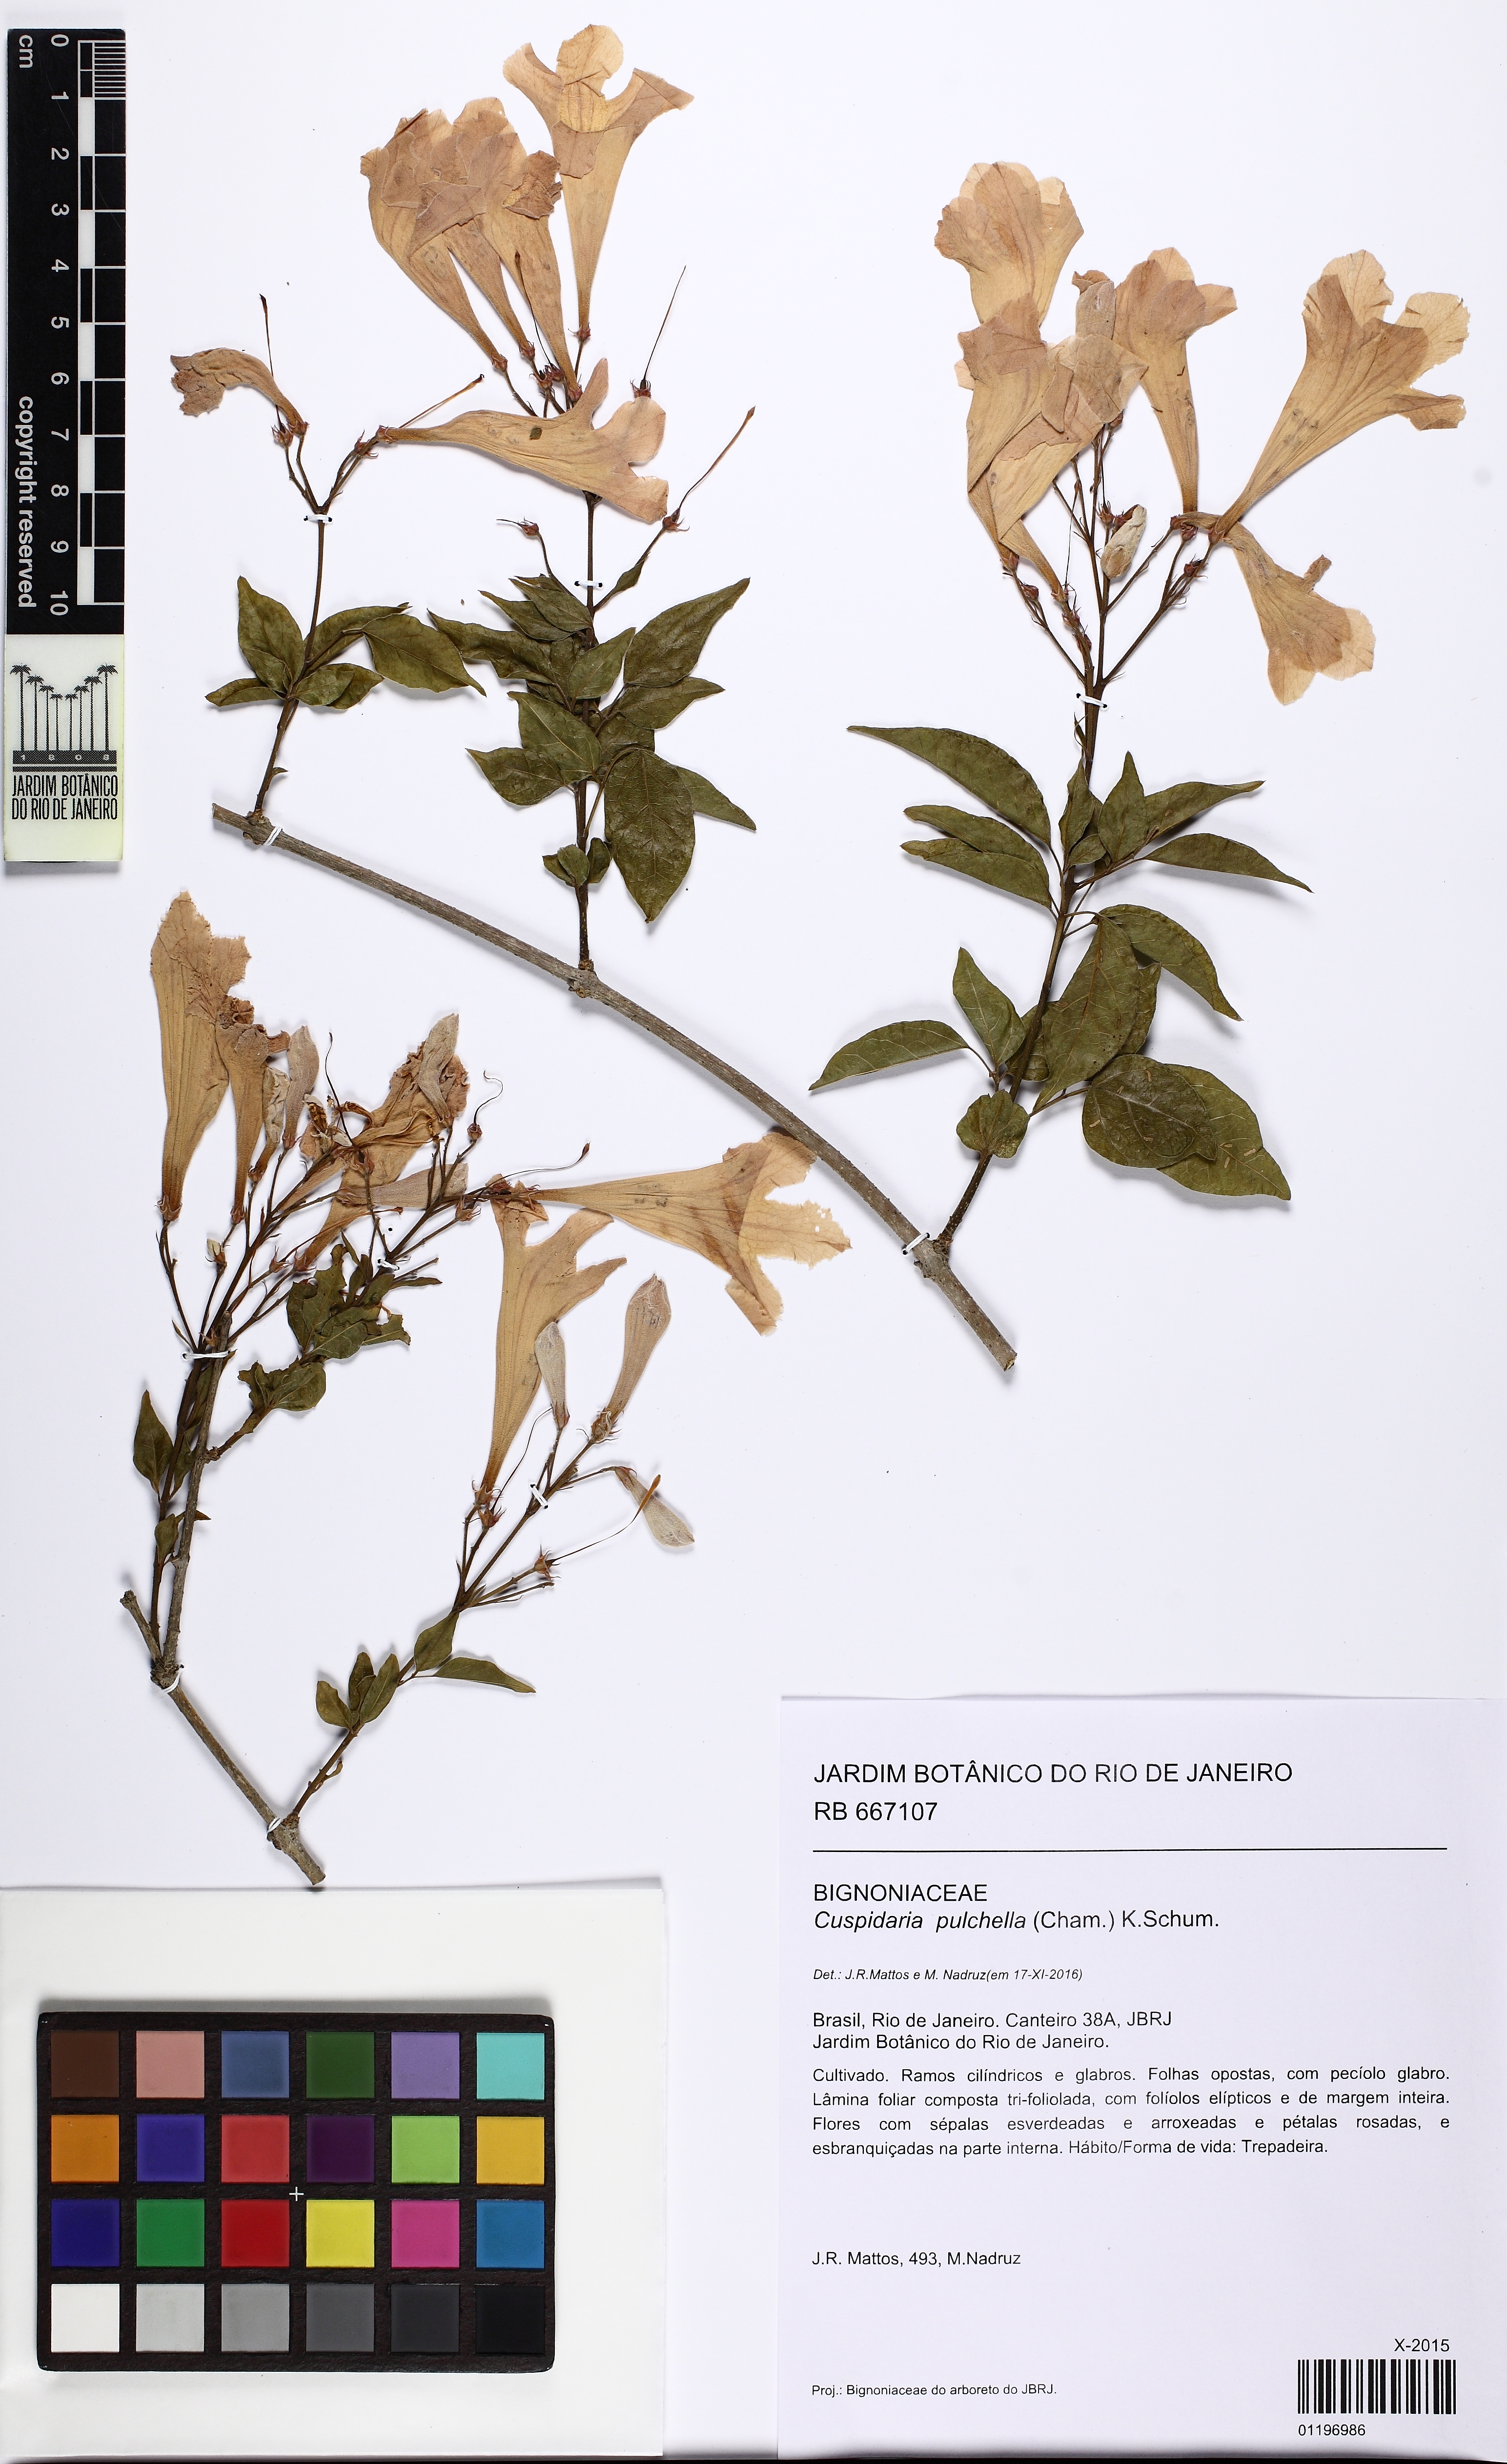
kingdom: Plantae
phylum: Tracheophyta
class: Magnoliopsida
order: Lamiales
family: Bignoniaceae
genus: Cuspidaria
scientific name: Cuspidaria convoluta
